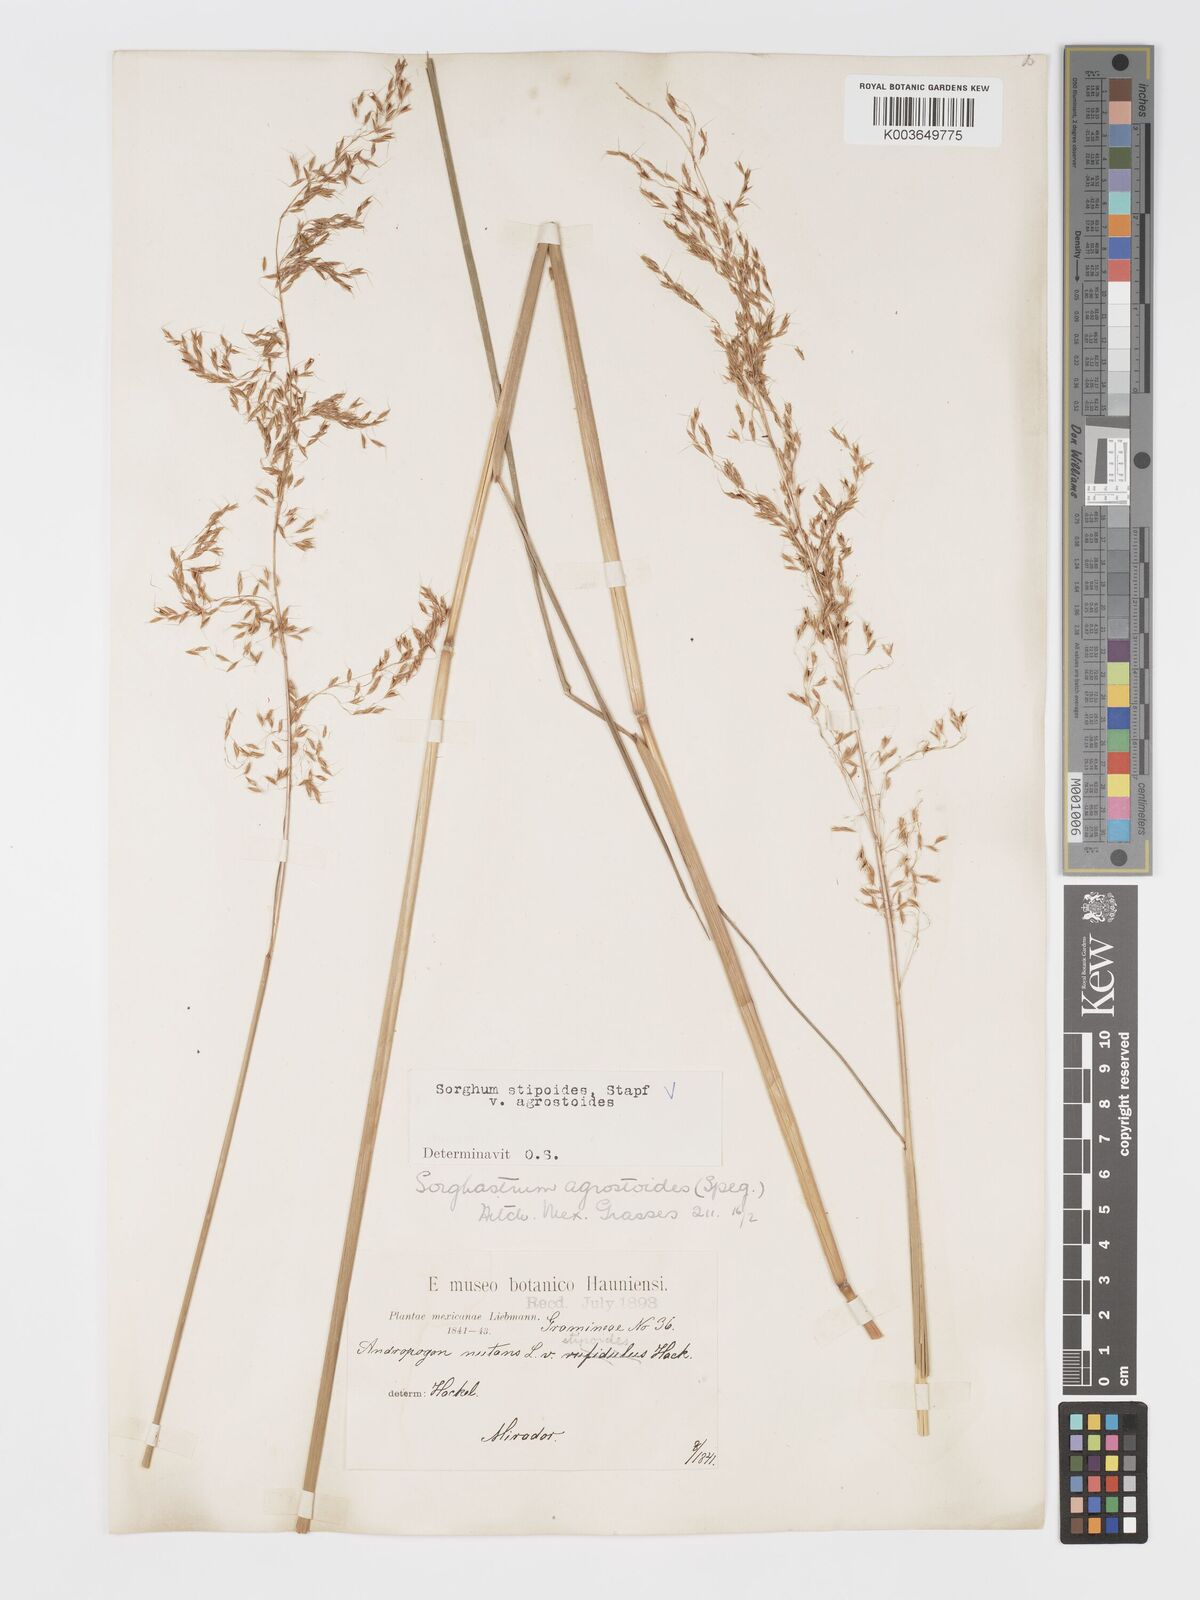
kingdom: Plantae
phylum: Tracheophyta
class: Liliopsida
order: Poales
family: Poaceae
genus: Sorghastrum
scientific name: Sorghastrum setosum
